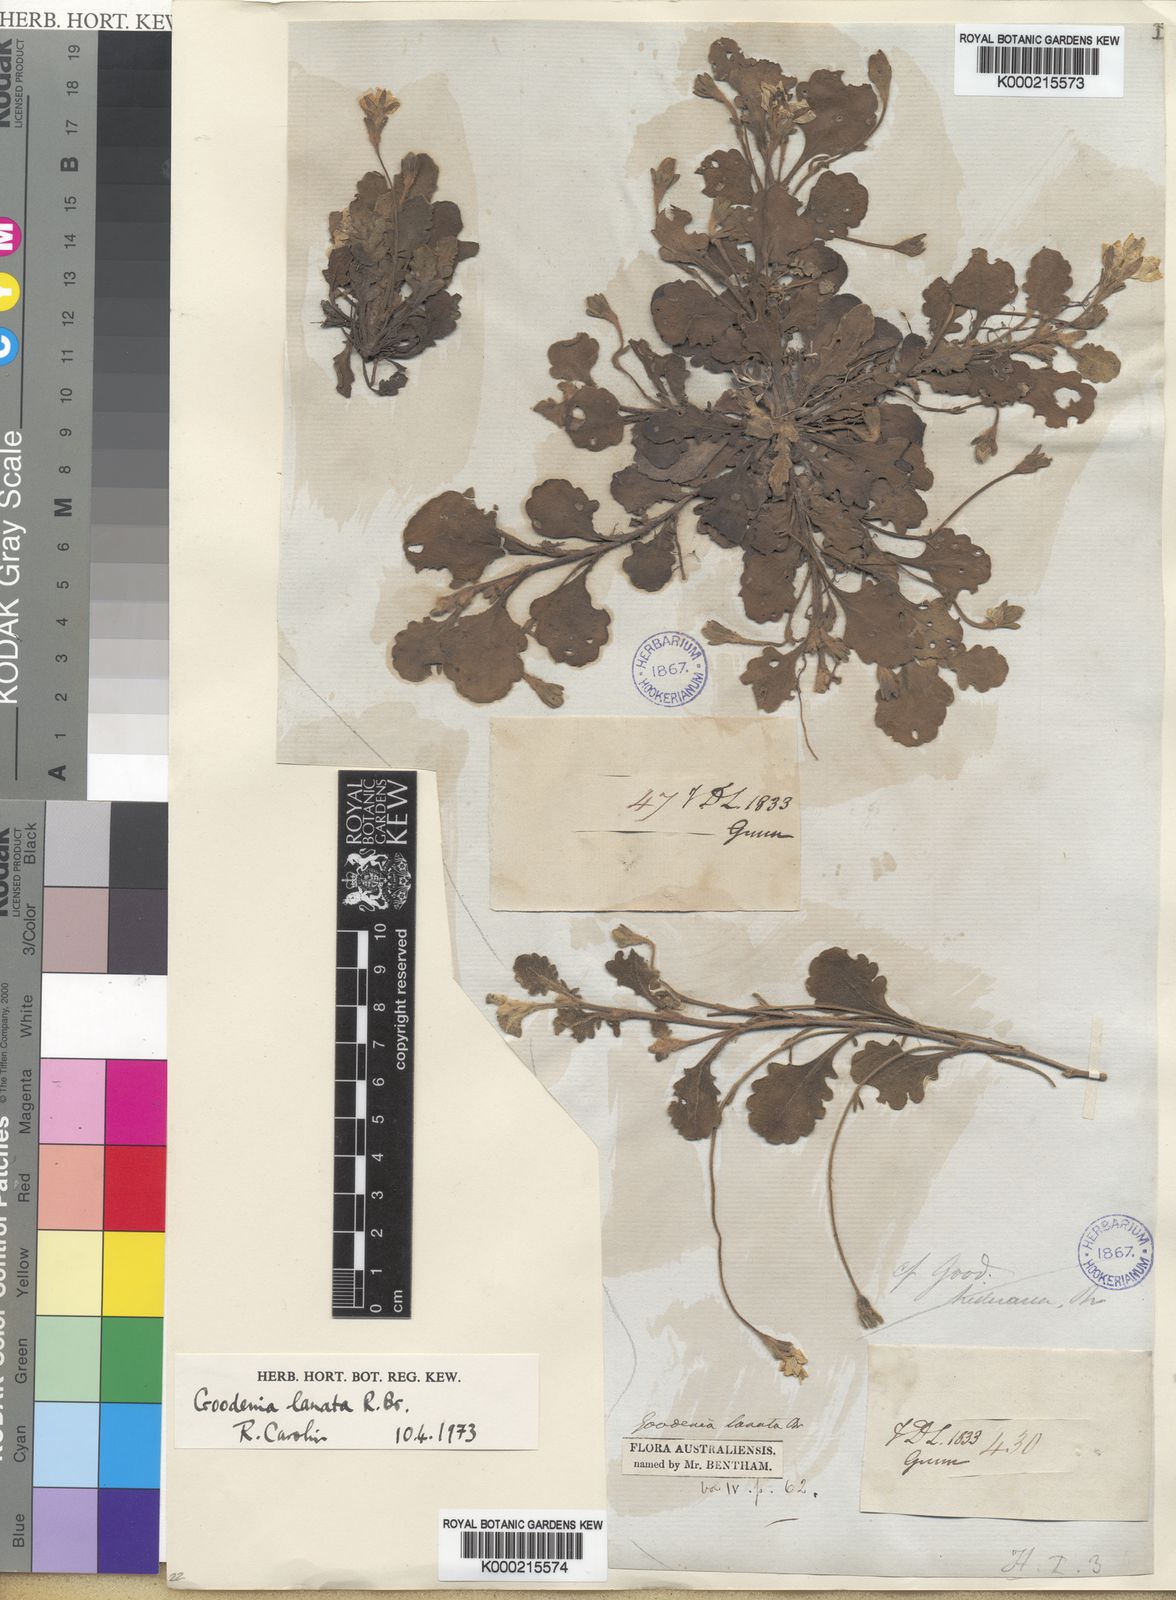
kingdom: Plantae
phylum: Tracheophyta
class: Magnoliopsida
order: Asterales
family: Goodeniaceae
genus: Goodenia
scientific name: Goodenia lanata
